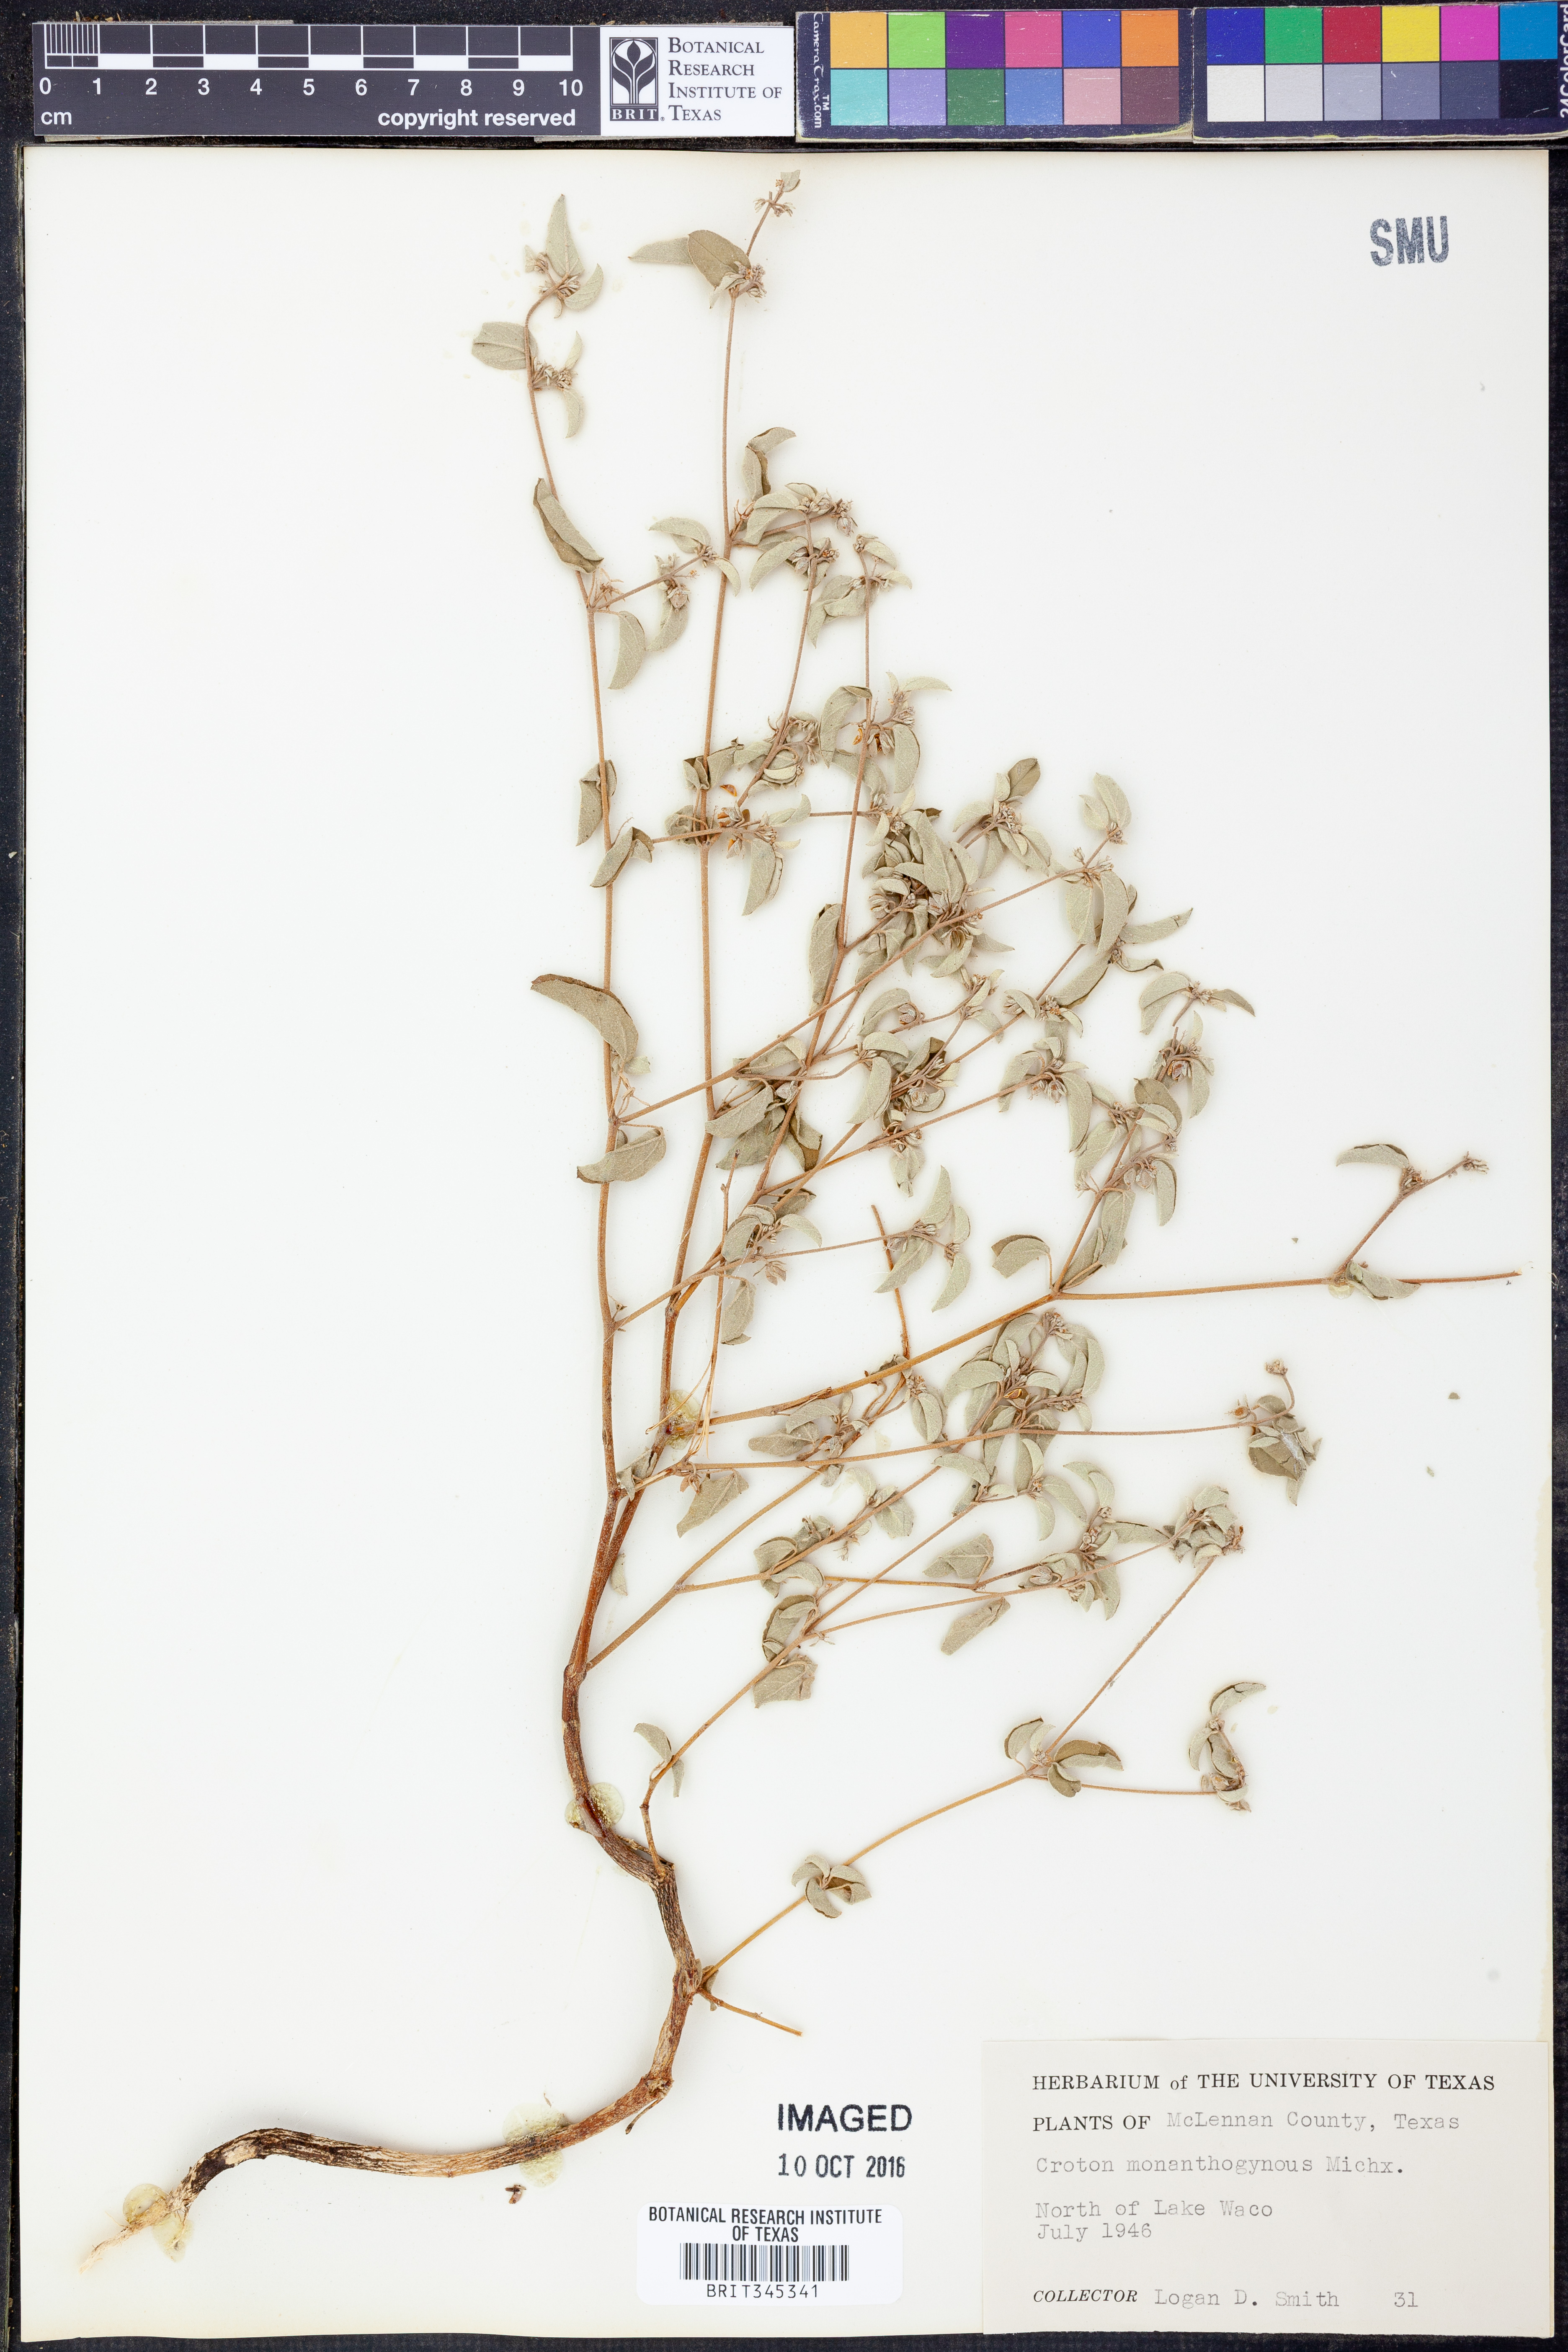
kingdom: Plantae
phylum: Tracheophyta
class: Magnoliopsida
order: Malpighiales
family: Euphorbiaceae
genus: Croton
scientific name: Croton monanthogynus
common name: One-seed croton
